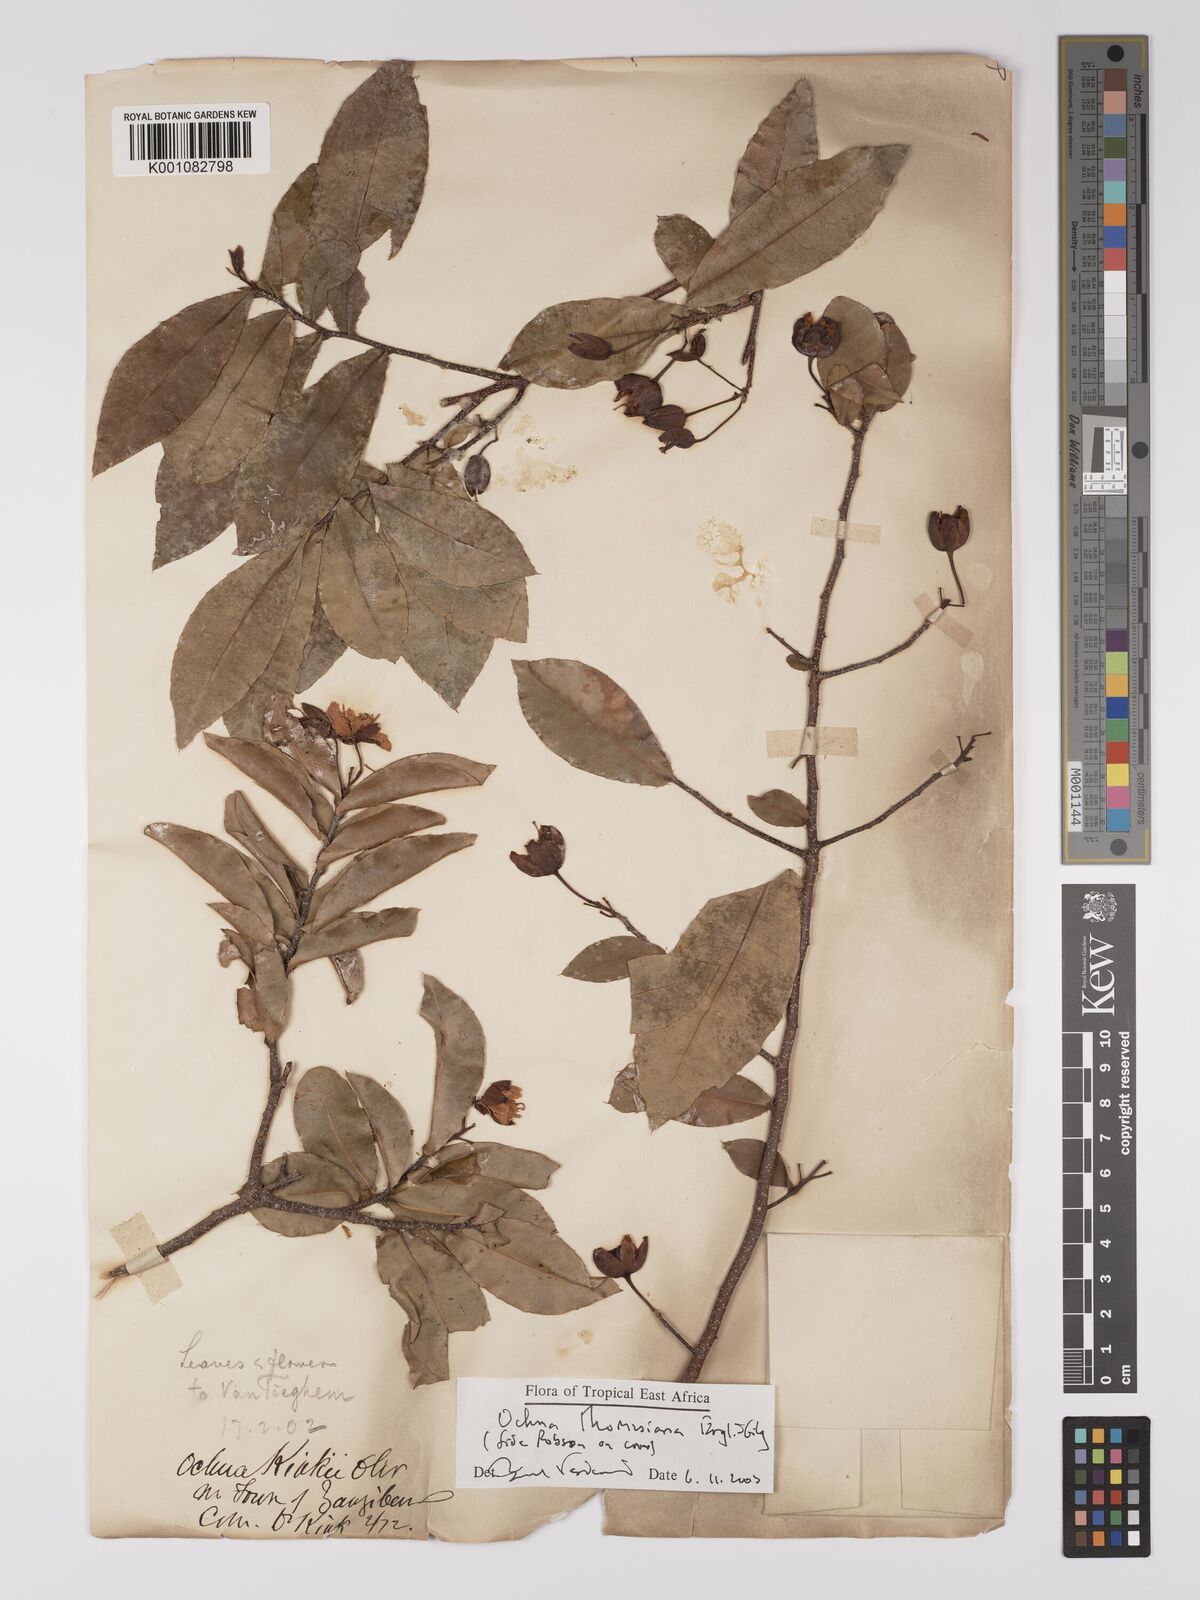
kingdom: Plantae
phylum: Tracheophyta
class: Magnoliopsida
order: Malpighiales
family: Ochnaceae
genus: Ochna
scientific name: Ochna thomasiana
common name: Thomas' bird's-eye bush
